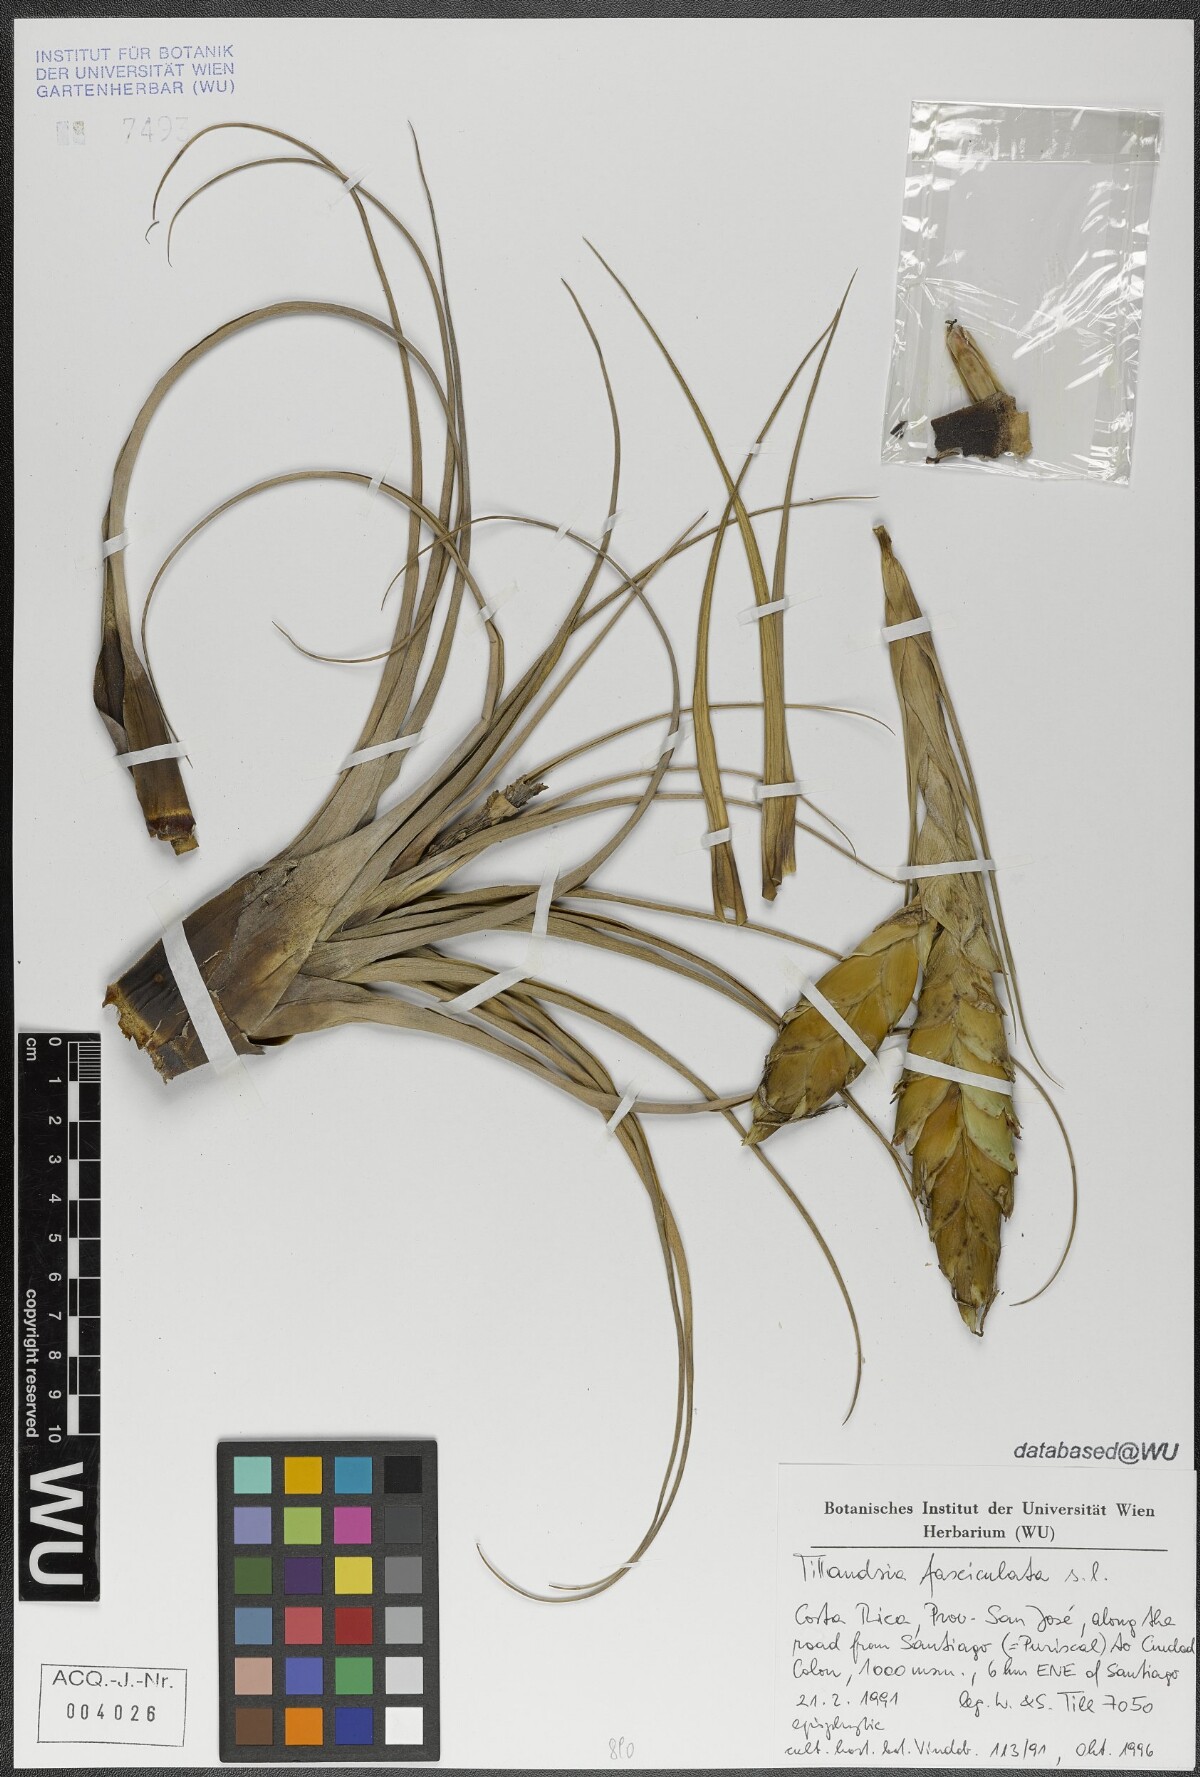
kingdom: Plantae
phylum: Tracheophyta
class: Liliopsida
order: Poales
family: Bromeliaceae
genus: Tillandsia
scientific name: Tillandsia fasciculata
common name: Giant airplant
